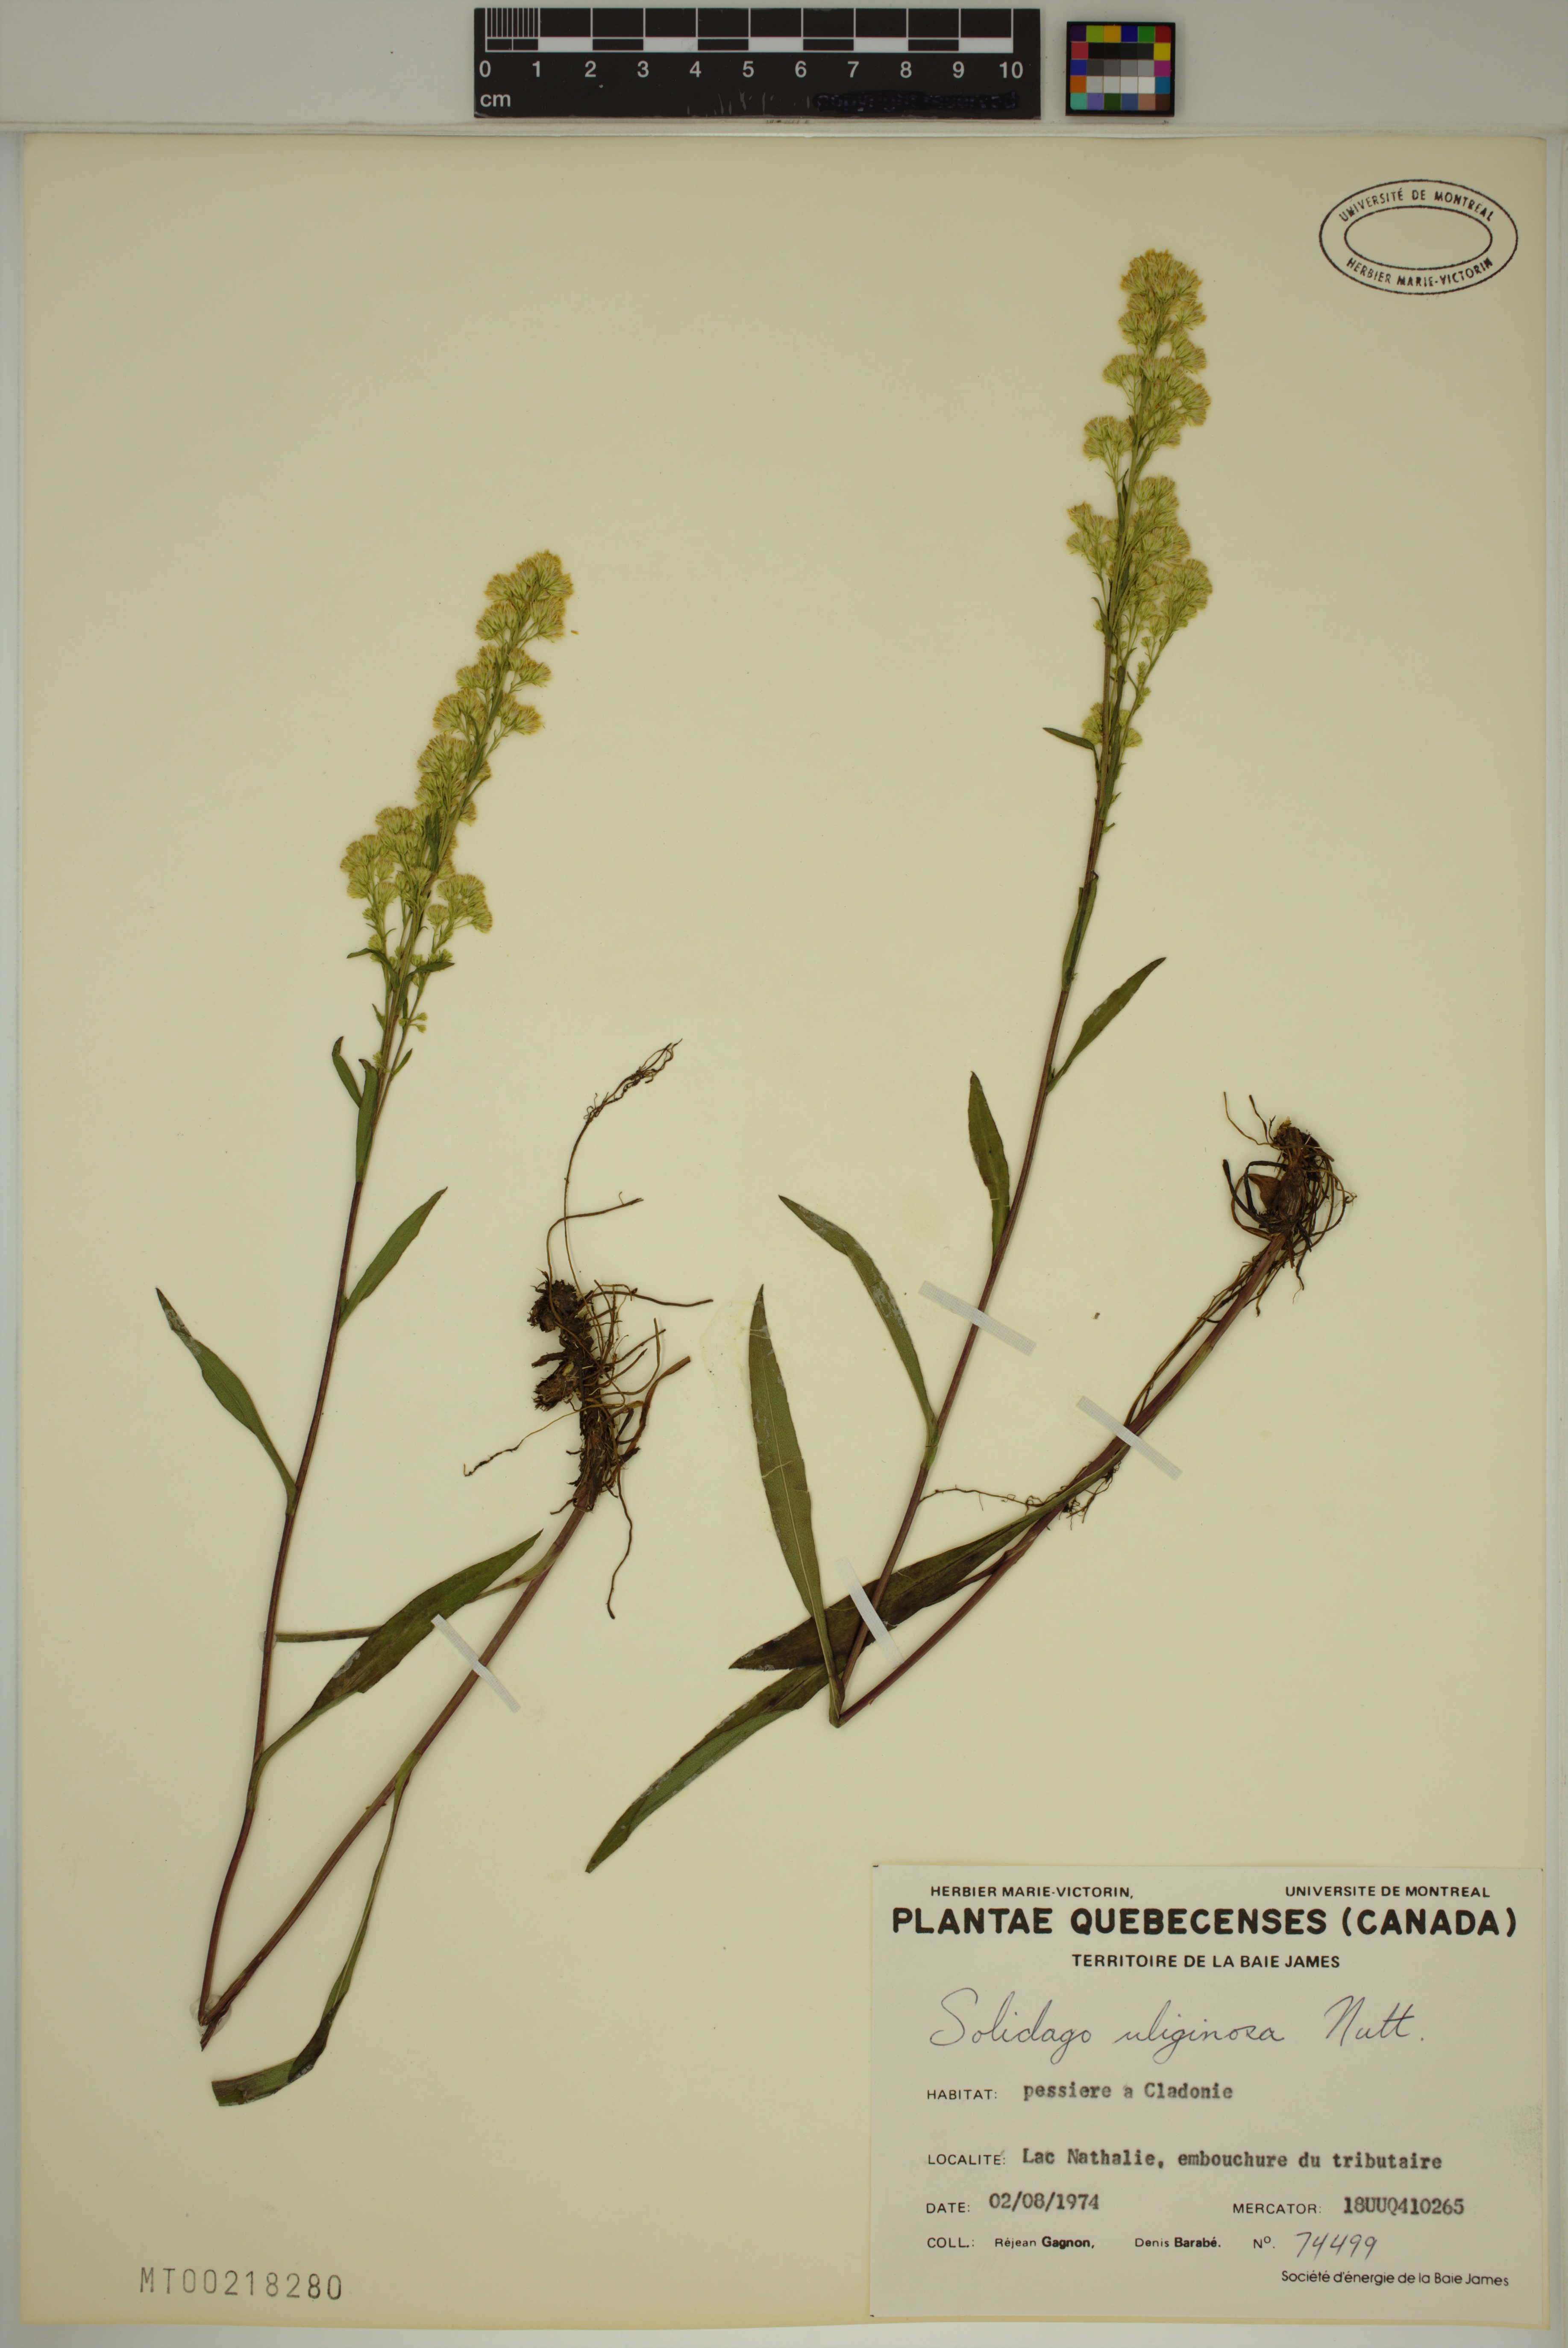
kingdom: Plantae
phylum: Tracheophyta
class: Magnoliopsida
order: Asterales
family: Asteraceae
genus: Solidago
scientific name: Solidago uliginosa
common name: Bog goldenrod
